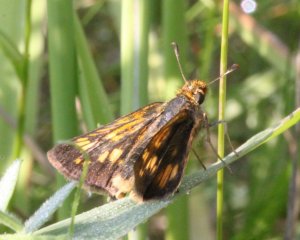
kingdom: Animalia
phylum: Arthropoda
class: Insecta
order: Lepidoptera
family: Hesperiidae
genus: Polites
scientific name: Polites coras
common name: Peck's Skipper
